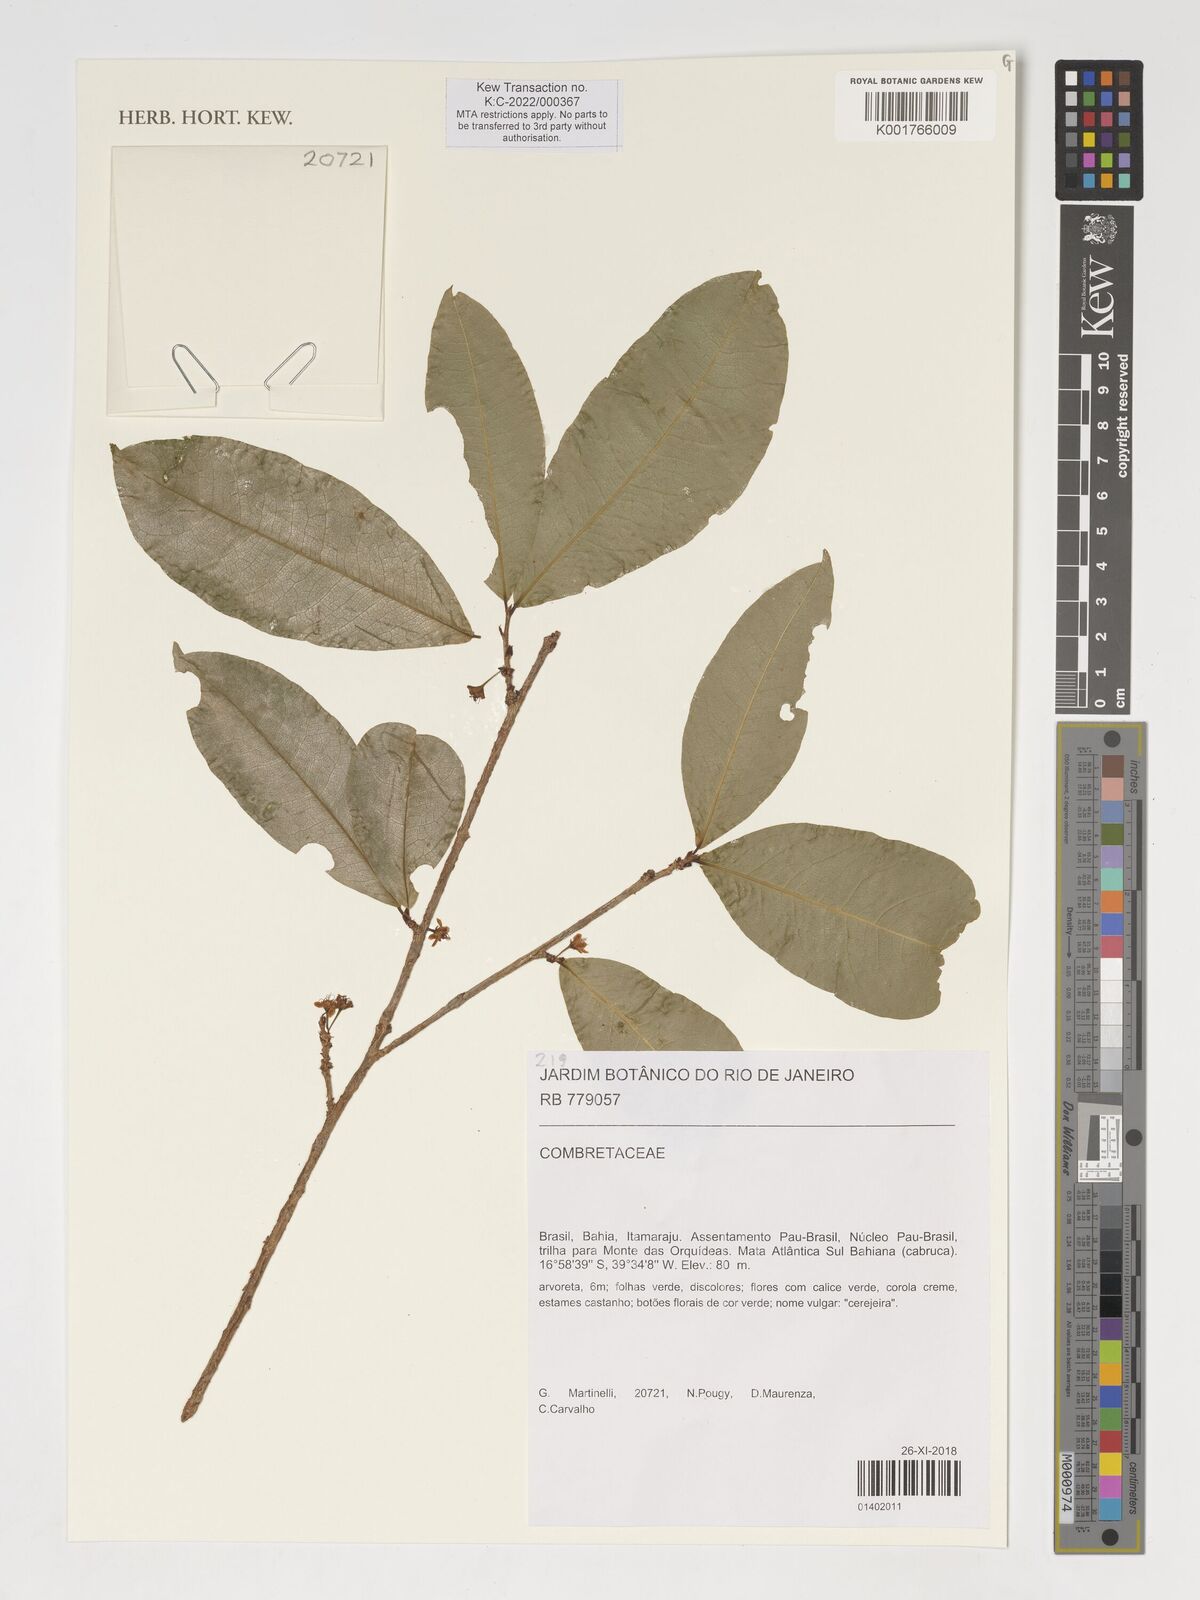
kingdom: Plantae
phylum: Tracheophyta
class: Magnoliopsida
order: Myrtales
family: Combretaceae
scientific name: Combretaceae
